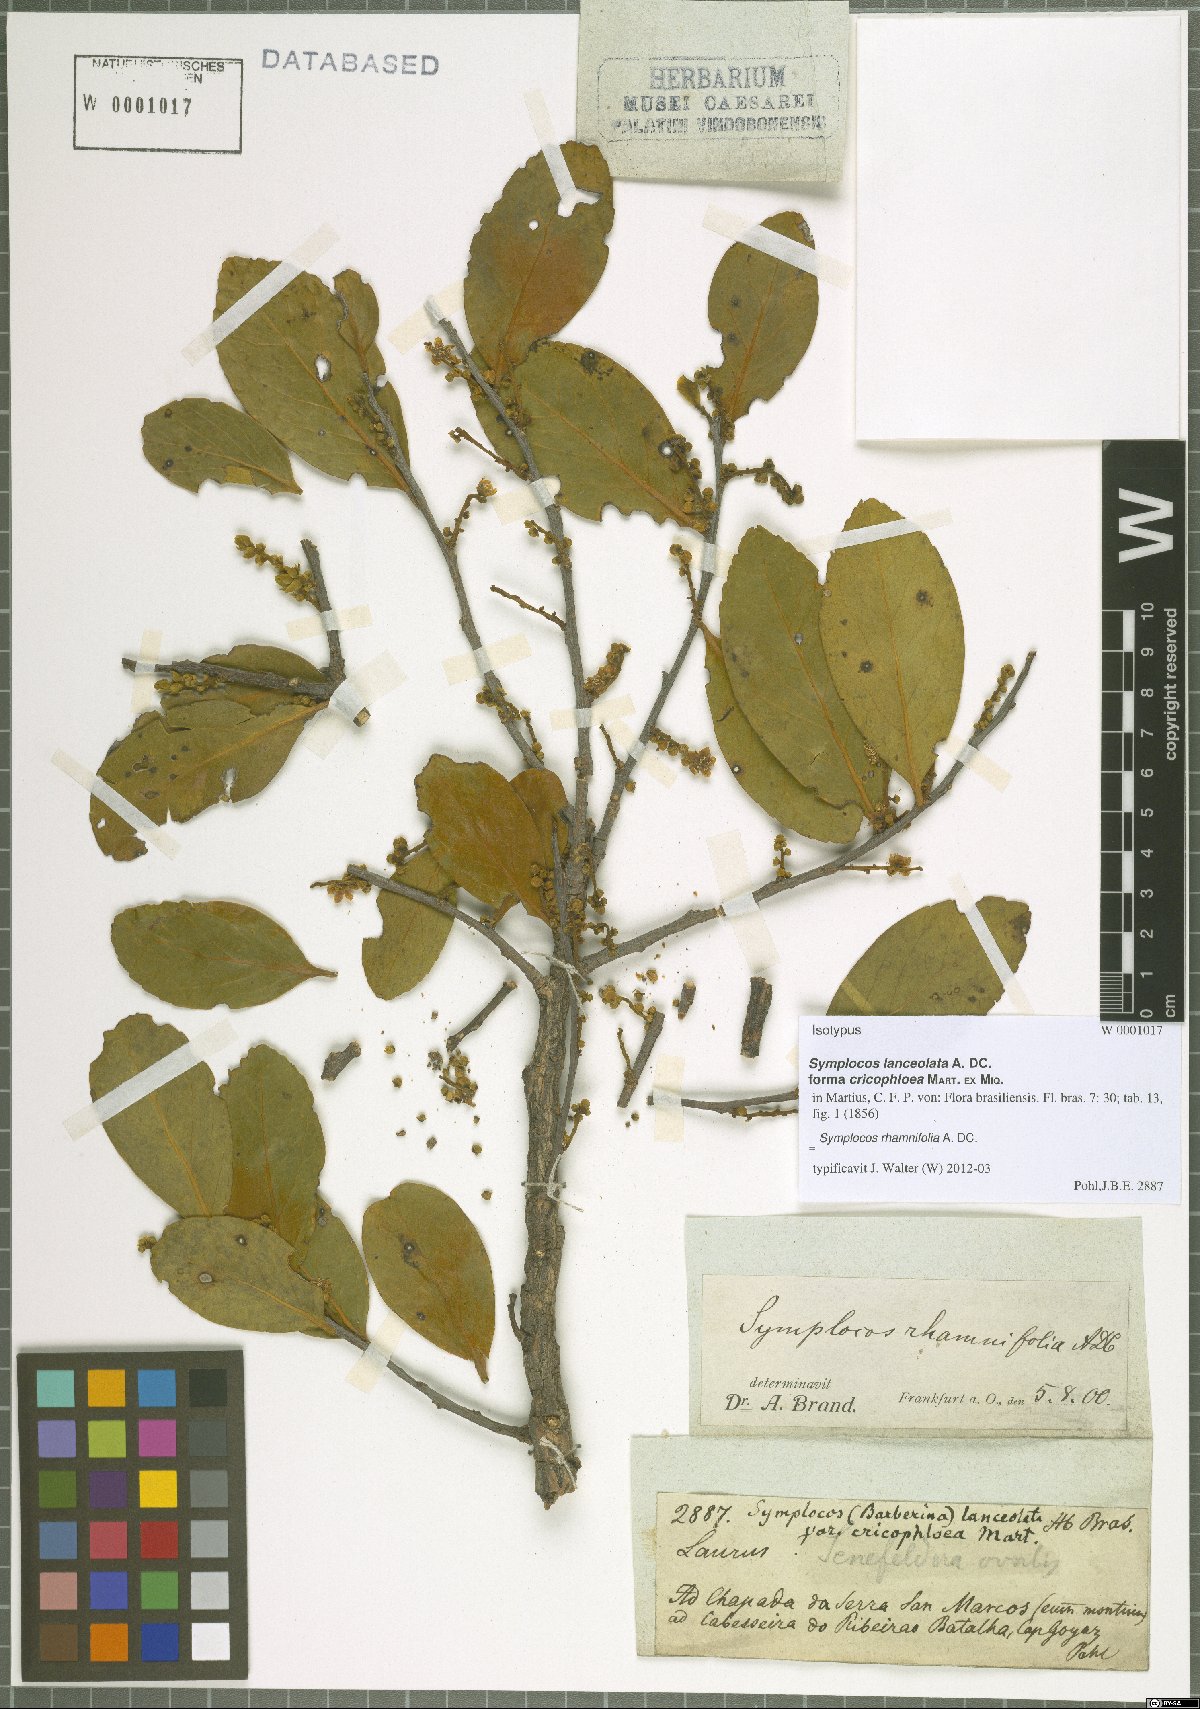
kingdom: Plantae
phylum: Tracheophyta
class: Magnoliopsida
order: Ericales
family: Symplocaceae
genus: Symplocos
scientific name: Symplocos rhamnifolia
